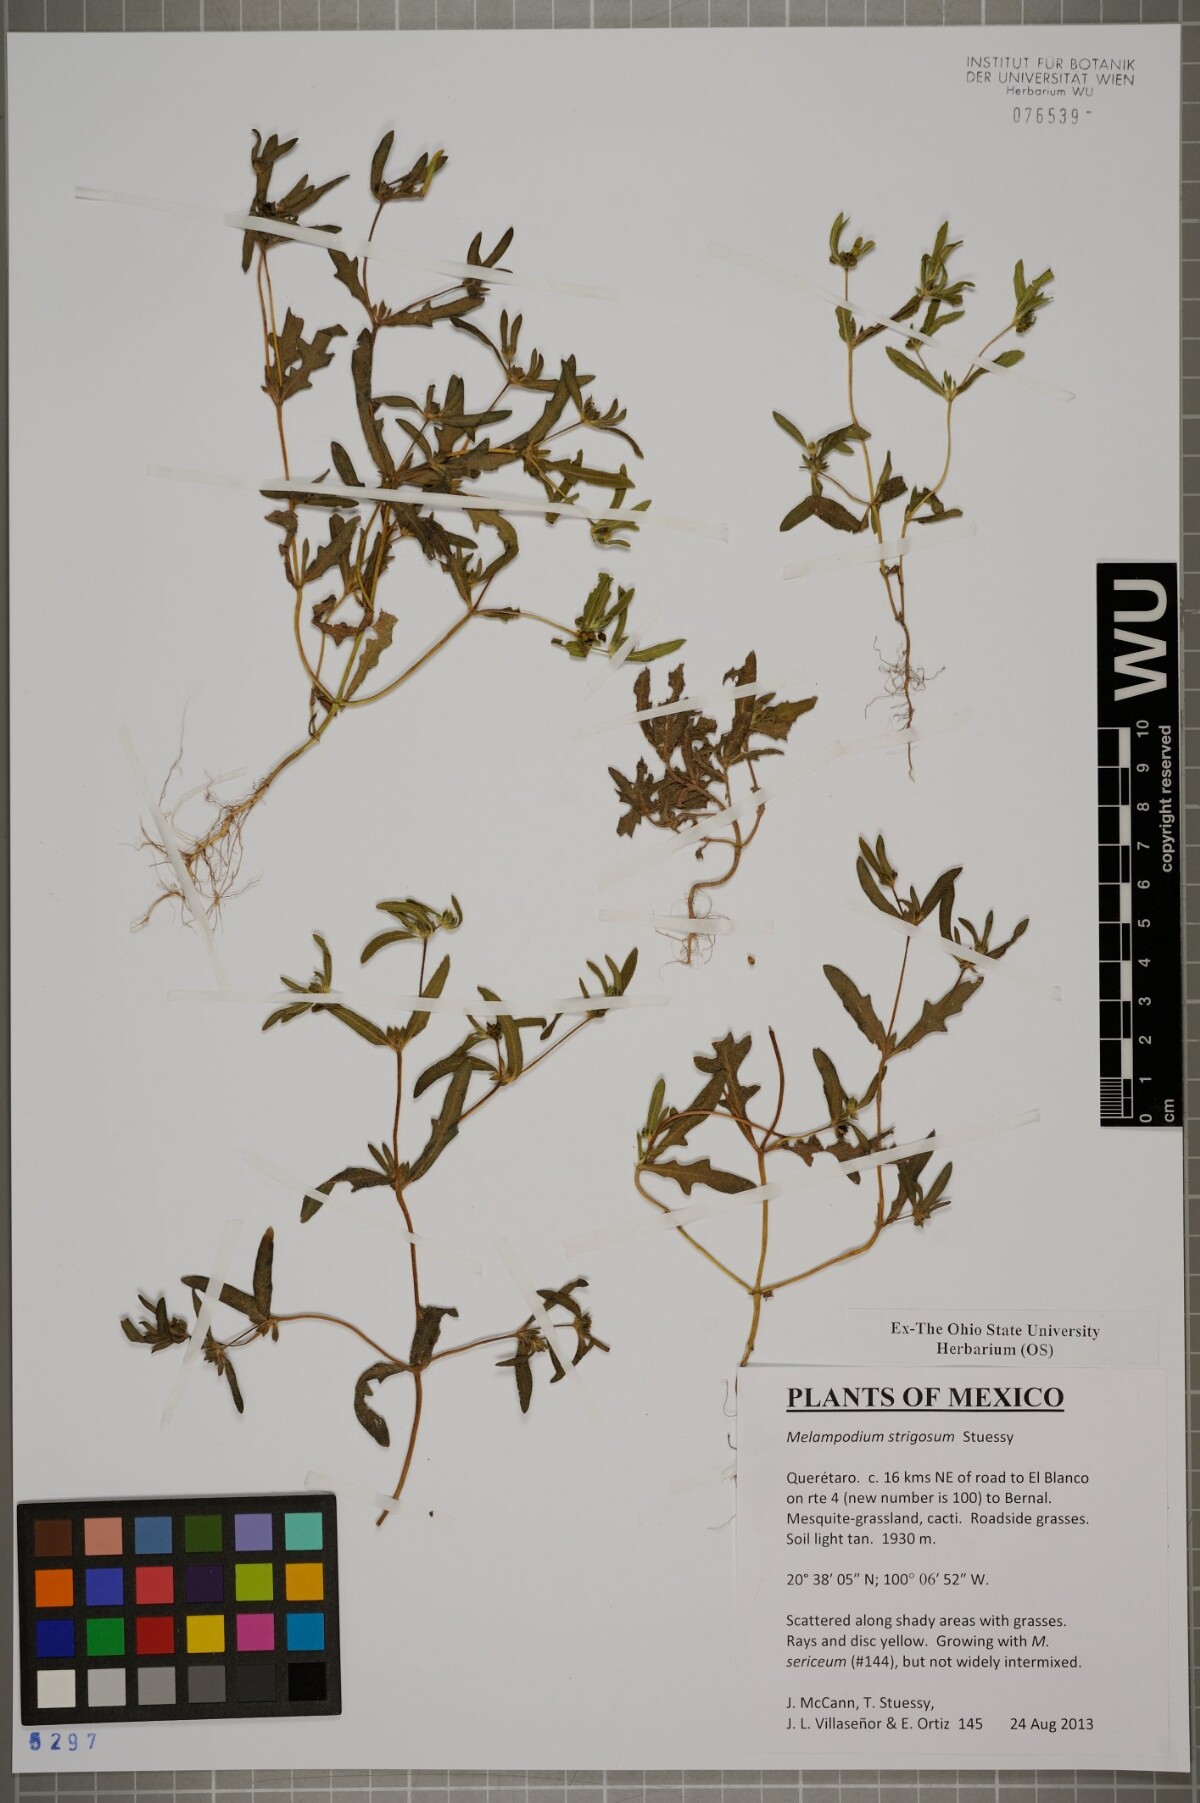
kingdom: Plantae
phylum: Tracheophyta
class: Magnoliopsida
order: Asterales
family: Asteraceae
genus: Melampodium
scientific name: Melampodium strigosum
